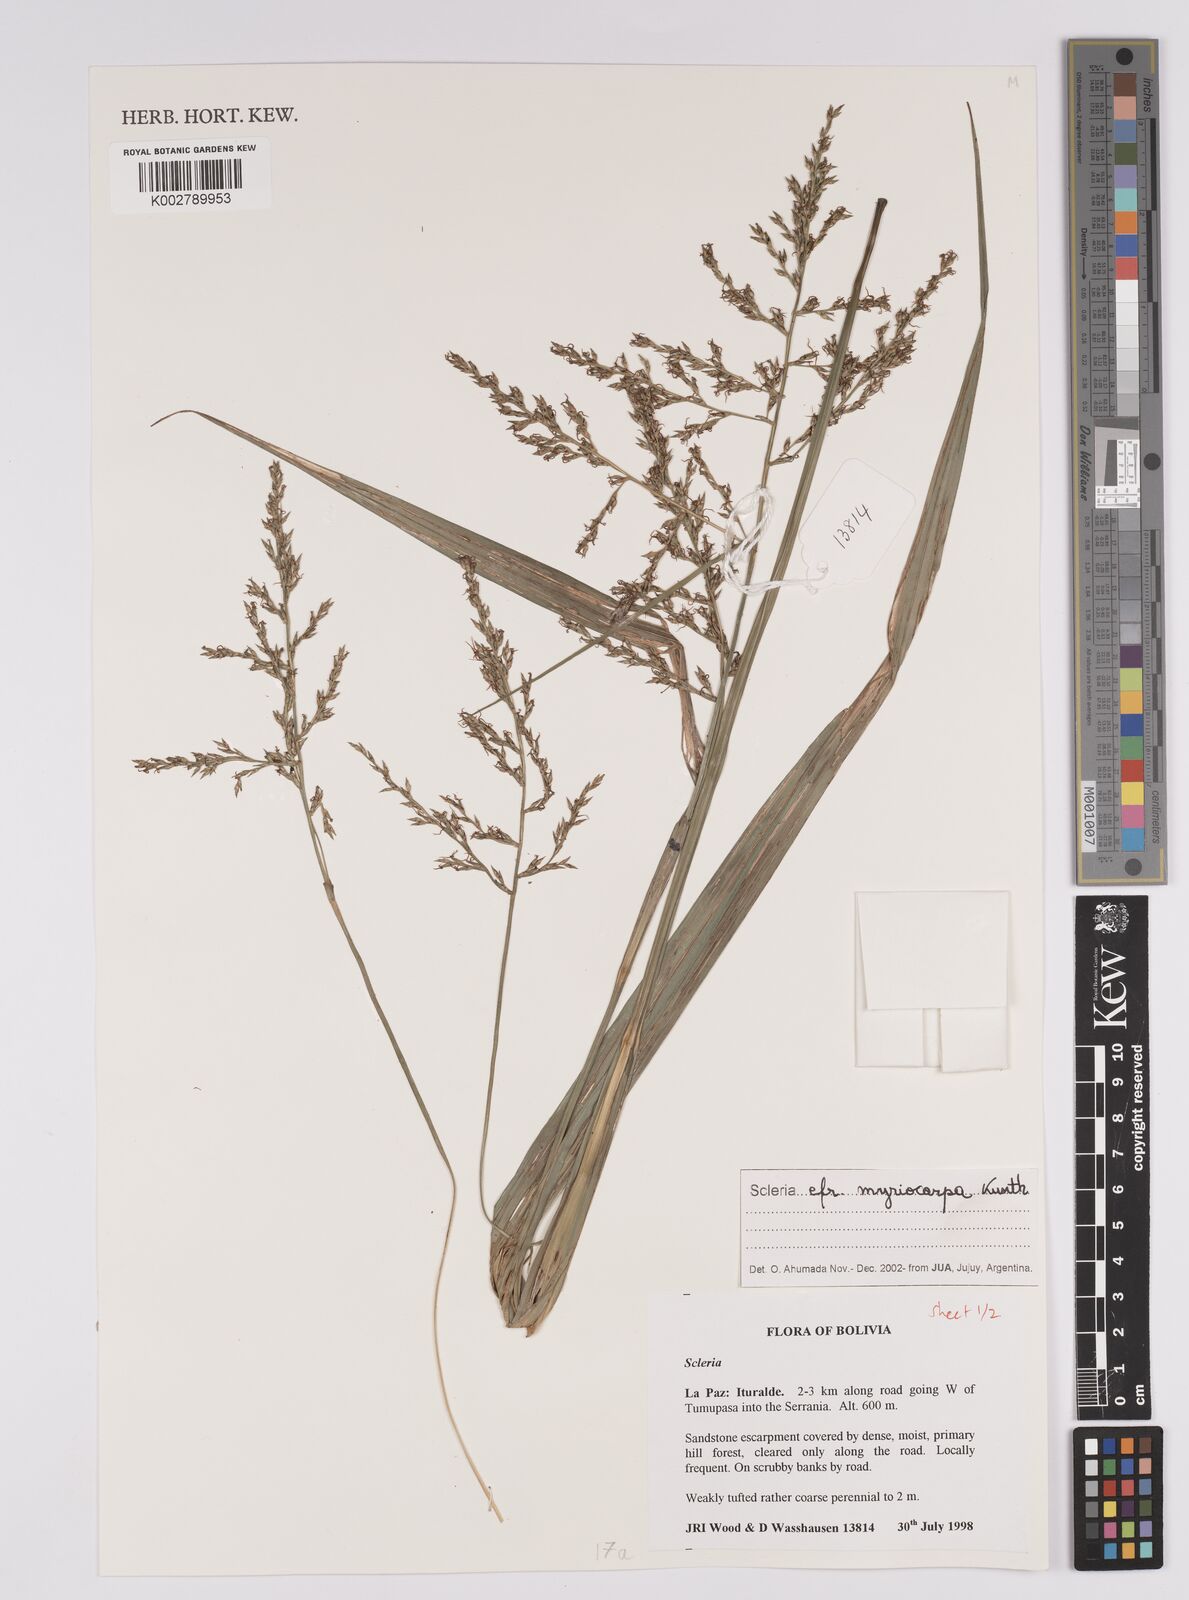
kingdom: Plantae
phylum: Tracheophyta
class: Liliopsida
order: Poales
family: Cyperaceae
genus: Scleria
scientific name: Scleria myricocarpa
